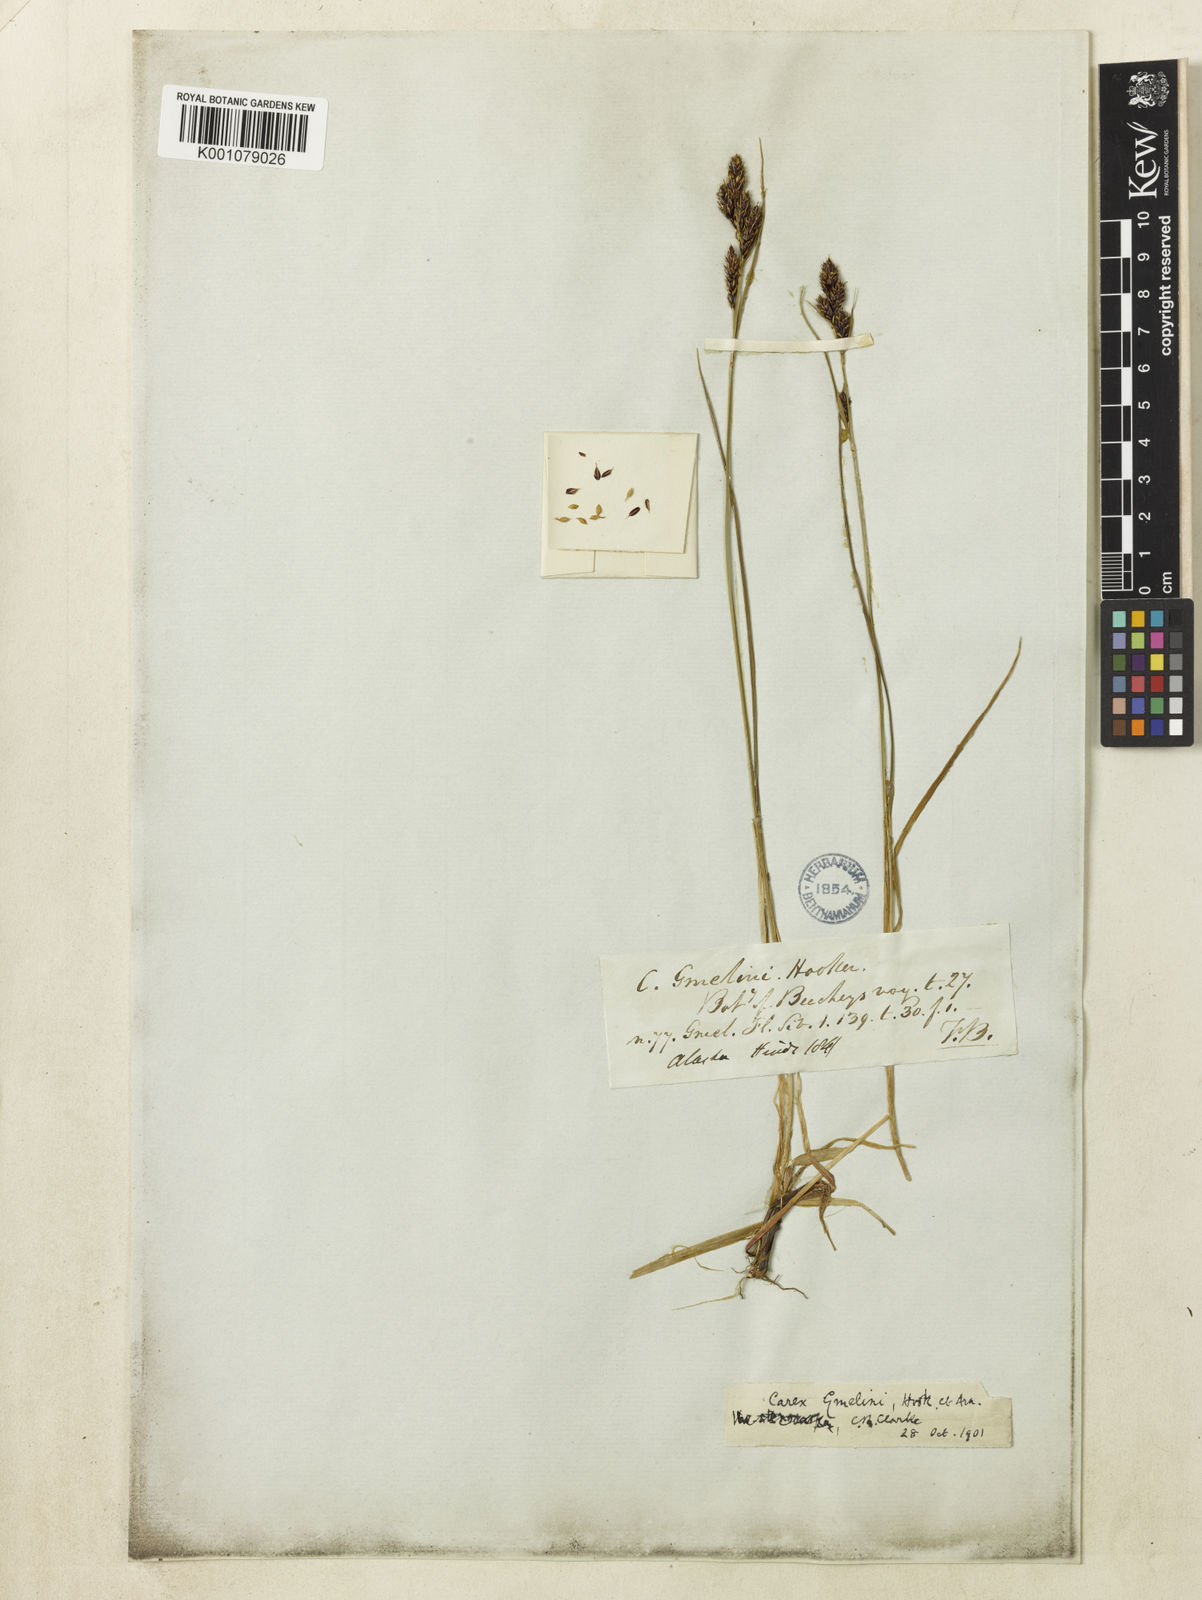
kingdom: Plantae
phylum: Tracheophyta
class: Liliopsida
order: Poales
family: Cyperaceae
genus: Carex
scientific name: Carex gmelinii
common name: Gmelin's sedge
